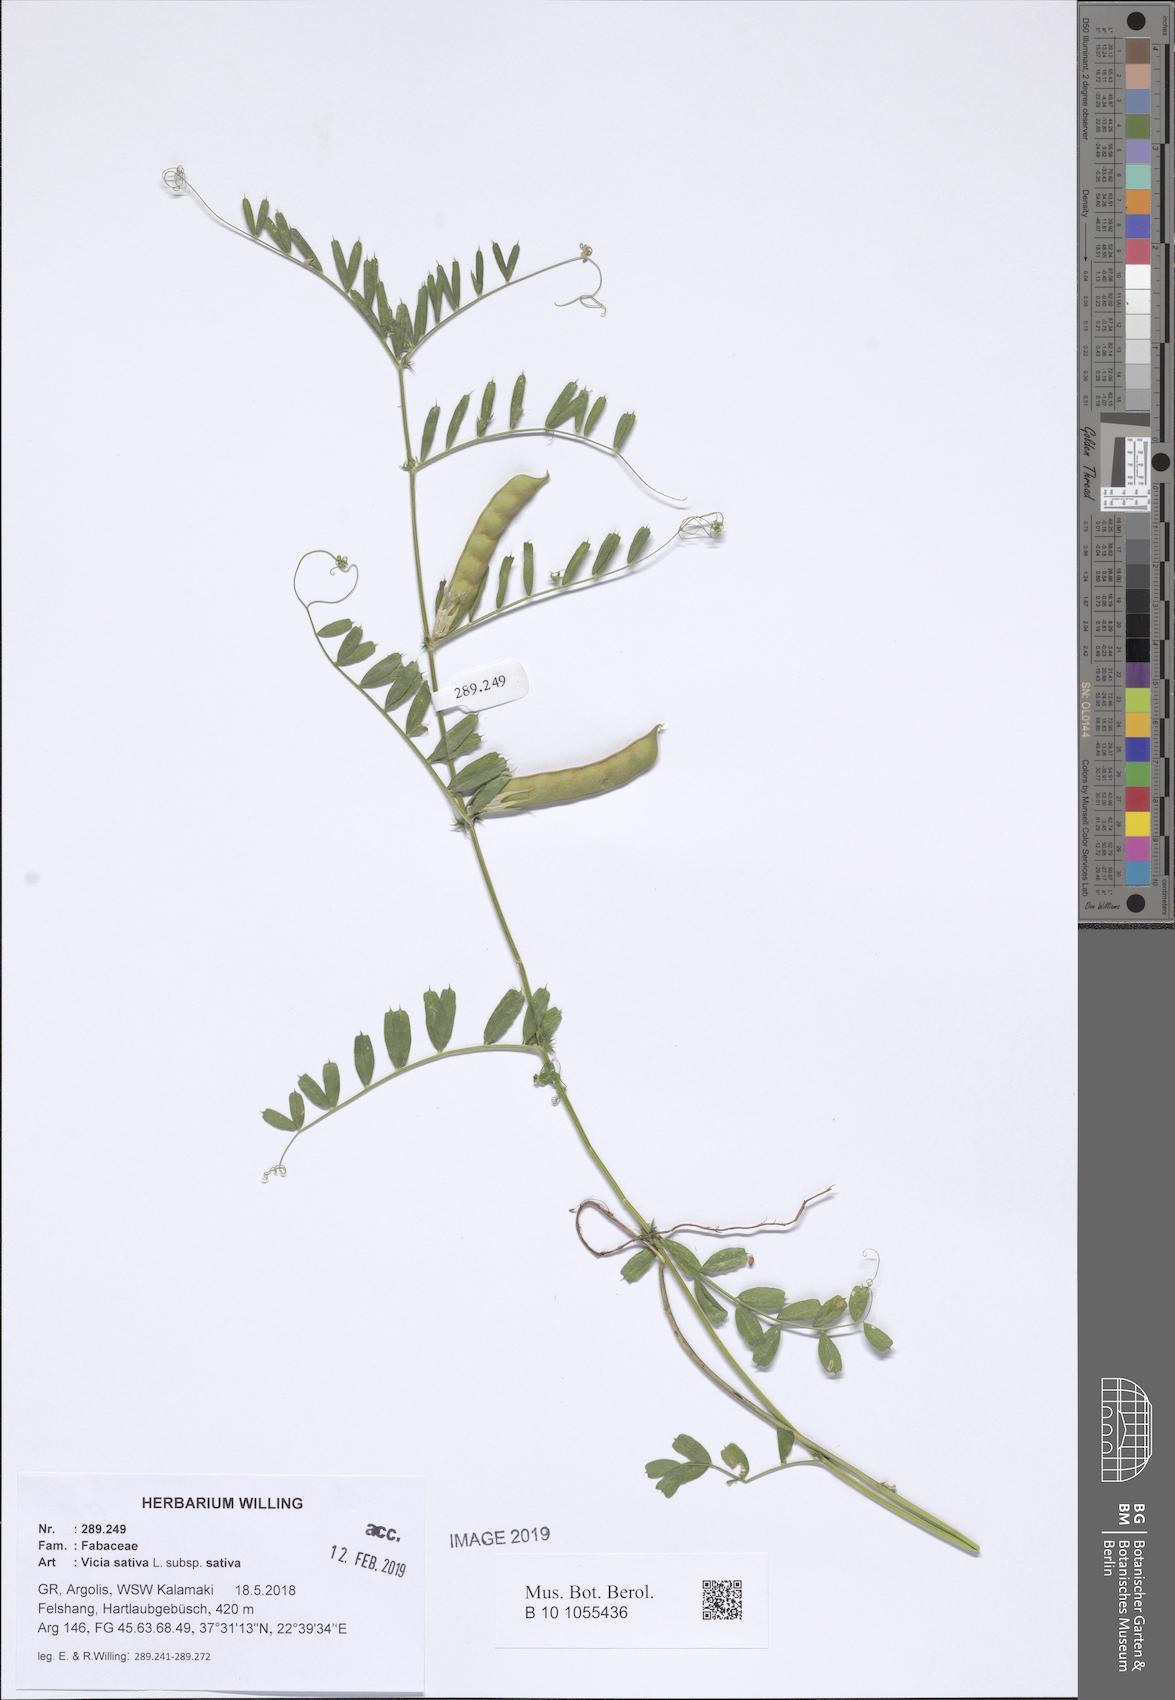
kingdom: Plantae
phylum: Tracheophyta
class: Magnoliopsida
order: Fabales
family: Fabaceae
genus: Vicia
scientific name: Vicia sativa
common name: Garden vetch
